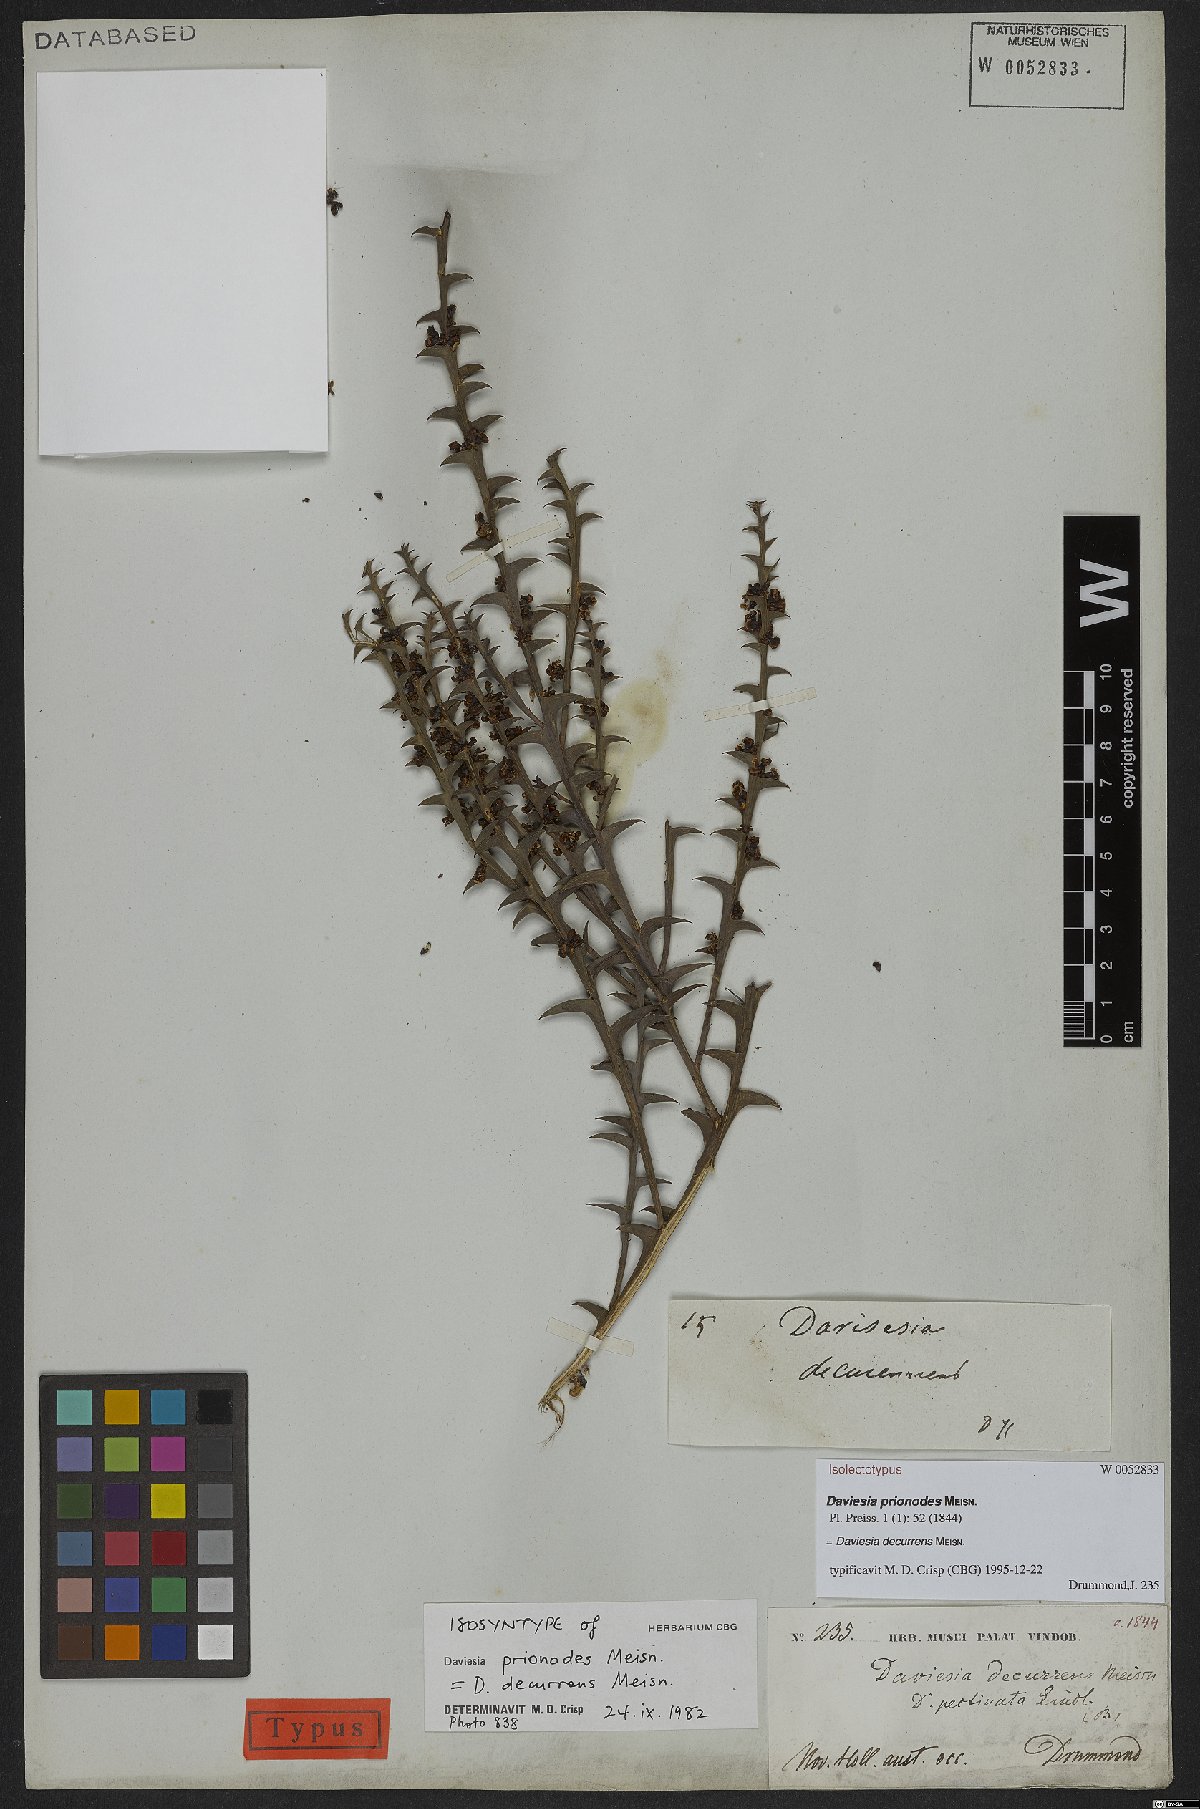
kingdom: Plantae
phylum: Tracheophyta
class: Magnoliopsida
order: Fabales
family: Fabaceae
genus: Daviesia
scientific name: Daviesia decurrens
